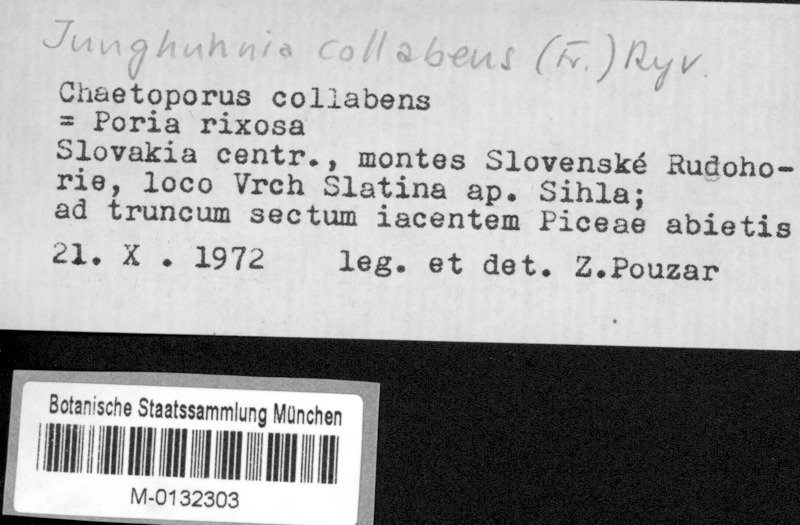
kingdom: Fungi
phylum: Basidiomycota
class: Agaricomycetes
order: Polyporales
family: Steccherinaceae
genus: Junghuhnia
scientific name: Junghuhnia collabens
